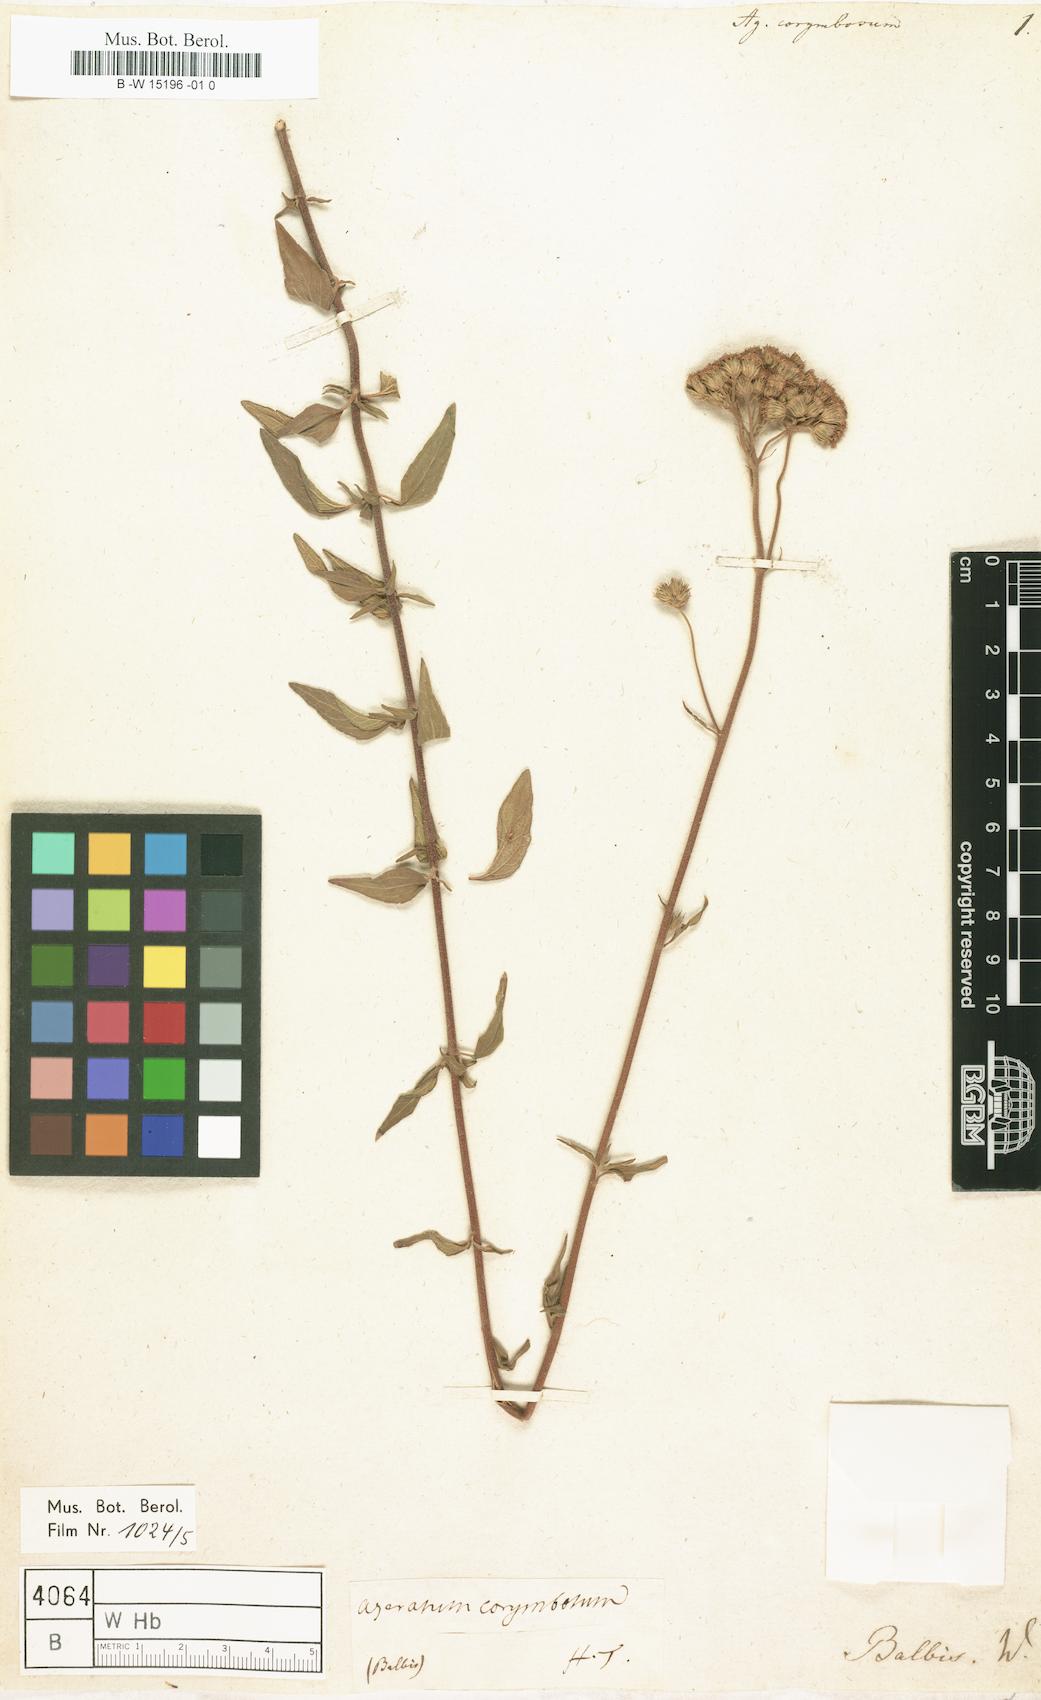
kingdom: Plantae
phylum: Tracheophyta
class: Magnoliopsida
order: Asterales
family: Asteraceae
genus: Ageratum
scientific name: Ageratum corymbosum
